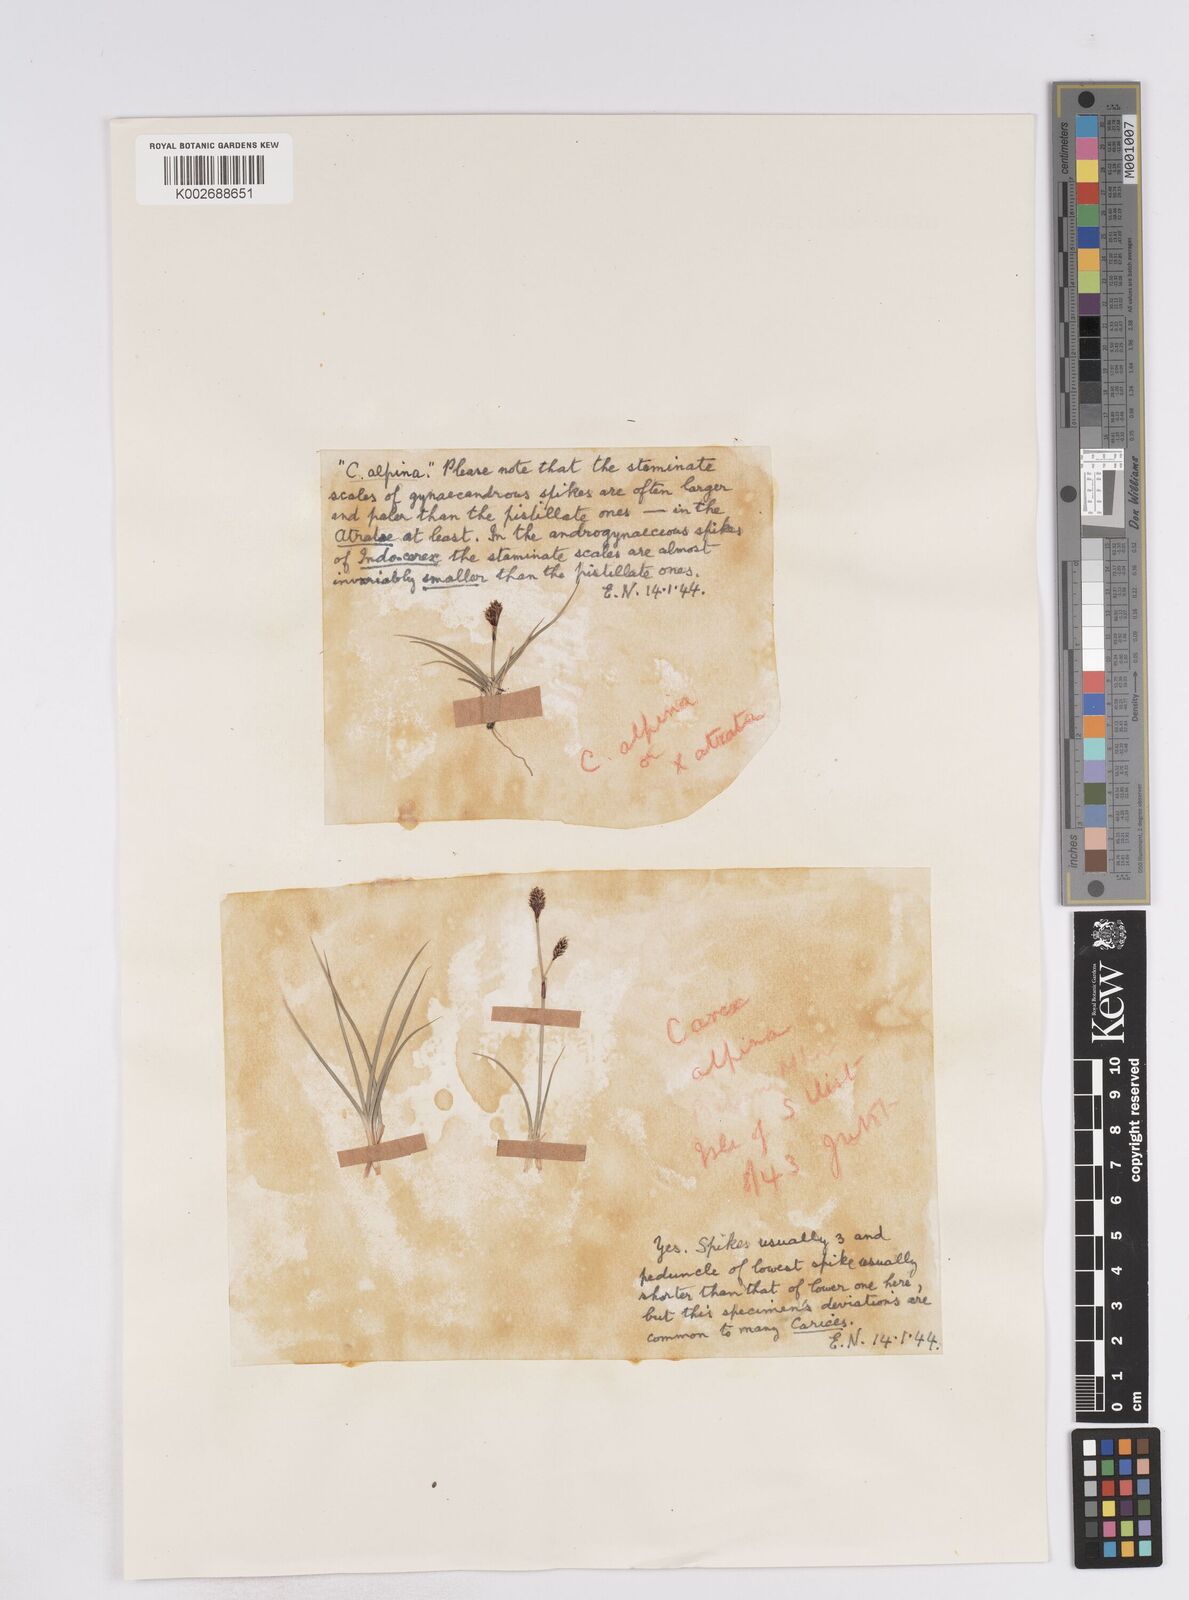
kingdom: Plantae
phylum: Tracheophyta
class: Liliopsida
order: Poales
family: Cyperaceae
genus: Carex
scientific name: Carex norvegica
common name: Close-headed alpine-sedge
